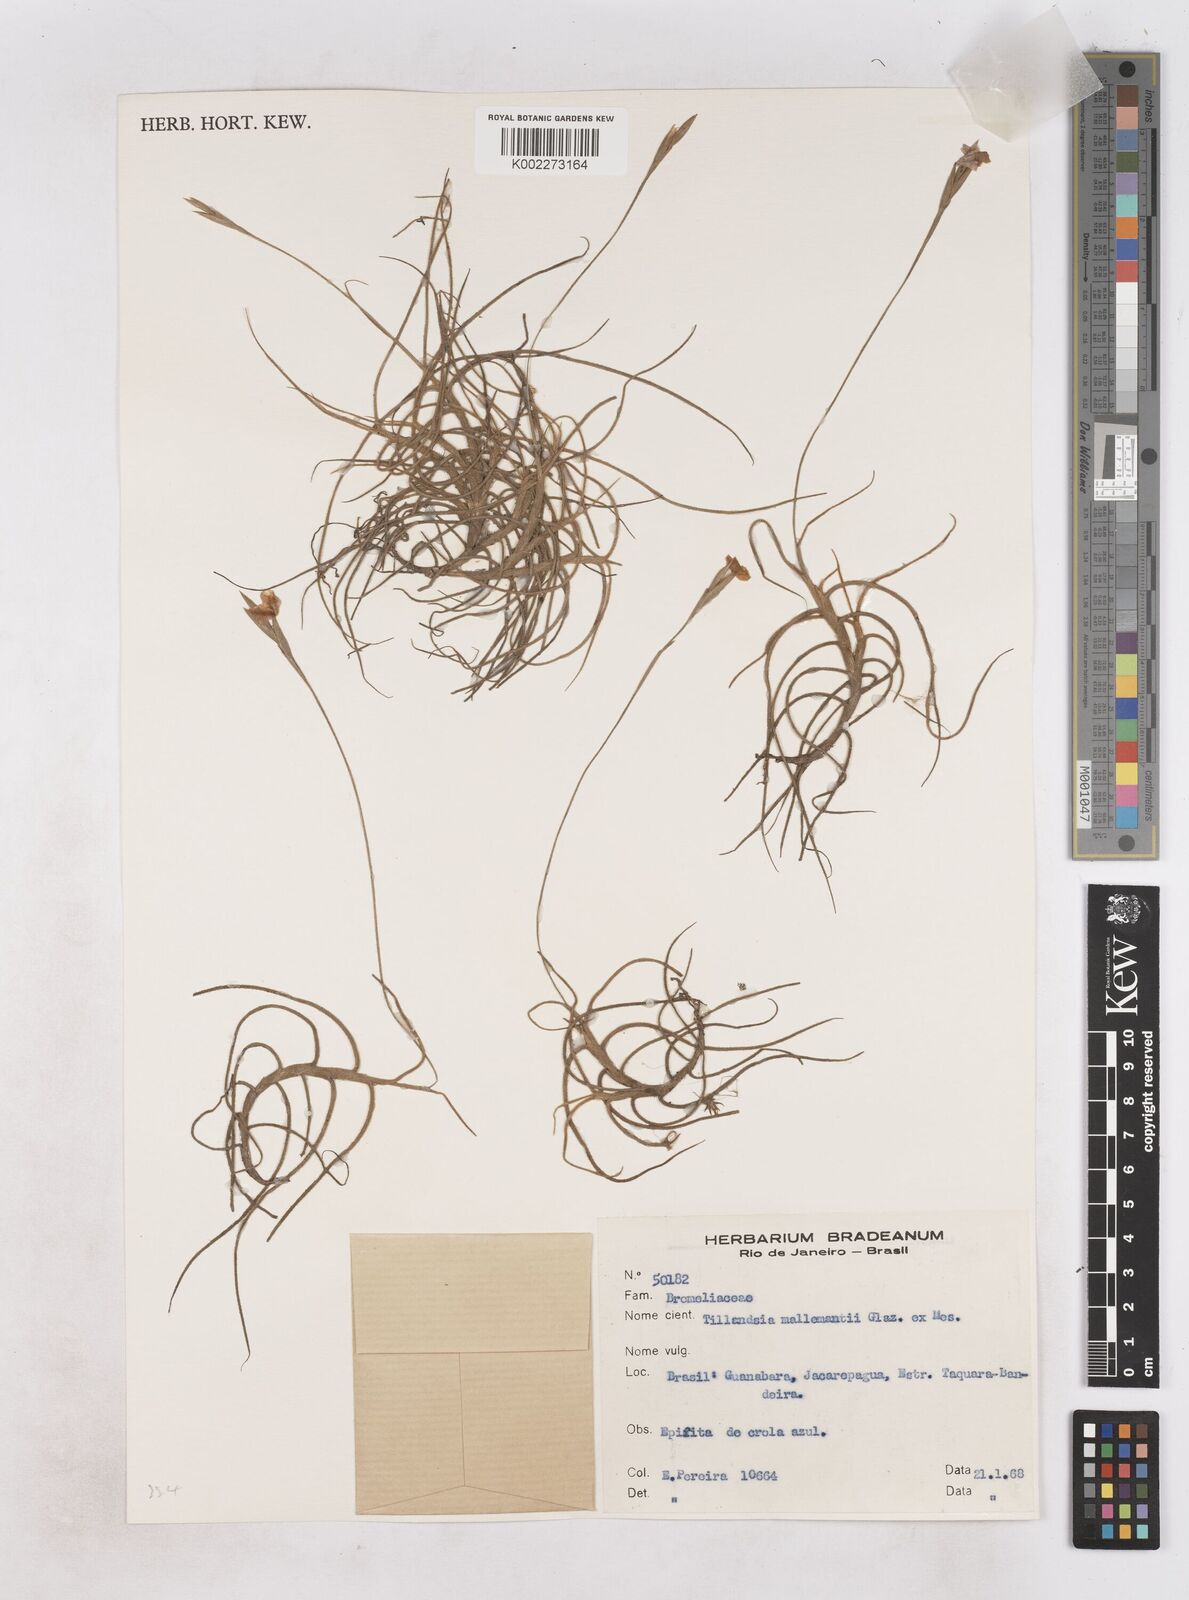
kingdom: Plantae
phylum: Tracheophyta
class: Liliopsida
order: Poales
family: Bromeliaceae
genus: Tillandsia
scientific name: Tillandsia mallemontii
